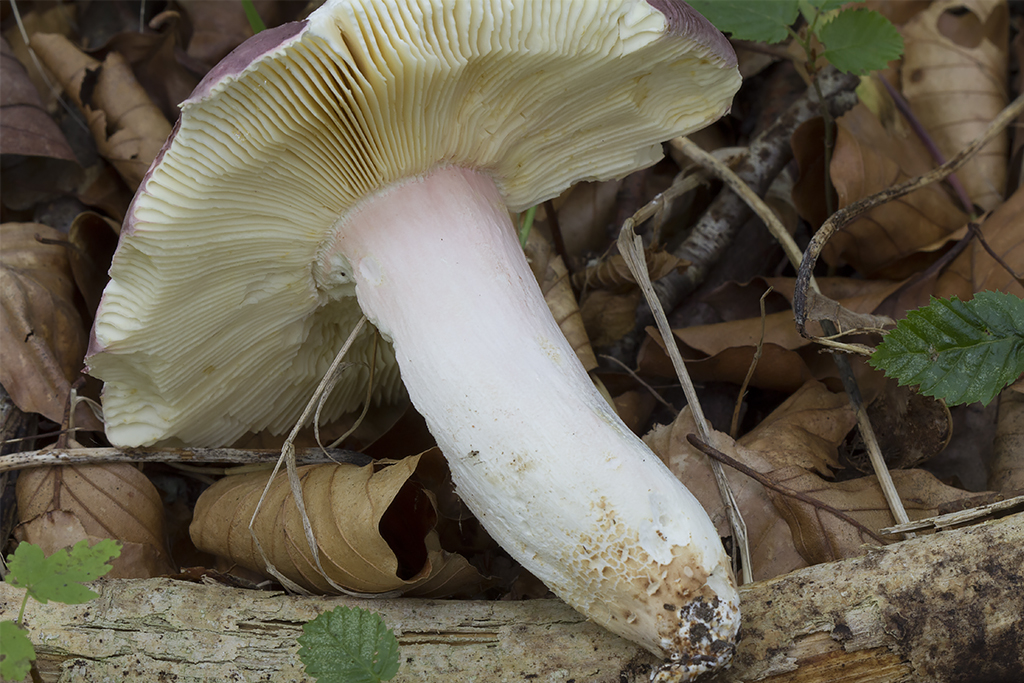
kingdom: Fungi
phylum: Basidiomycota
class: Agaricomycetes
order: Russulales
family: Russulaceae
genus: Russula
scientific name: Russula olivacea
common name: stor skørhat
